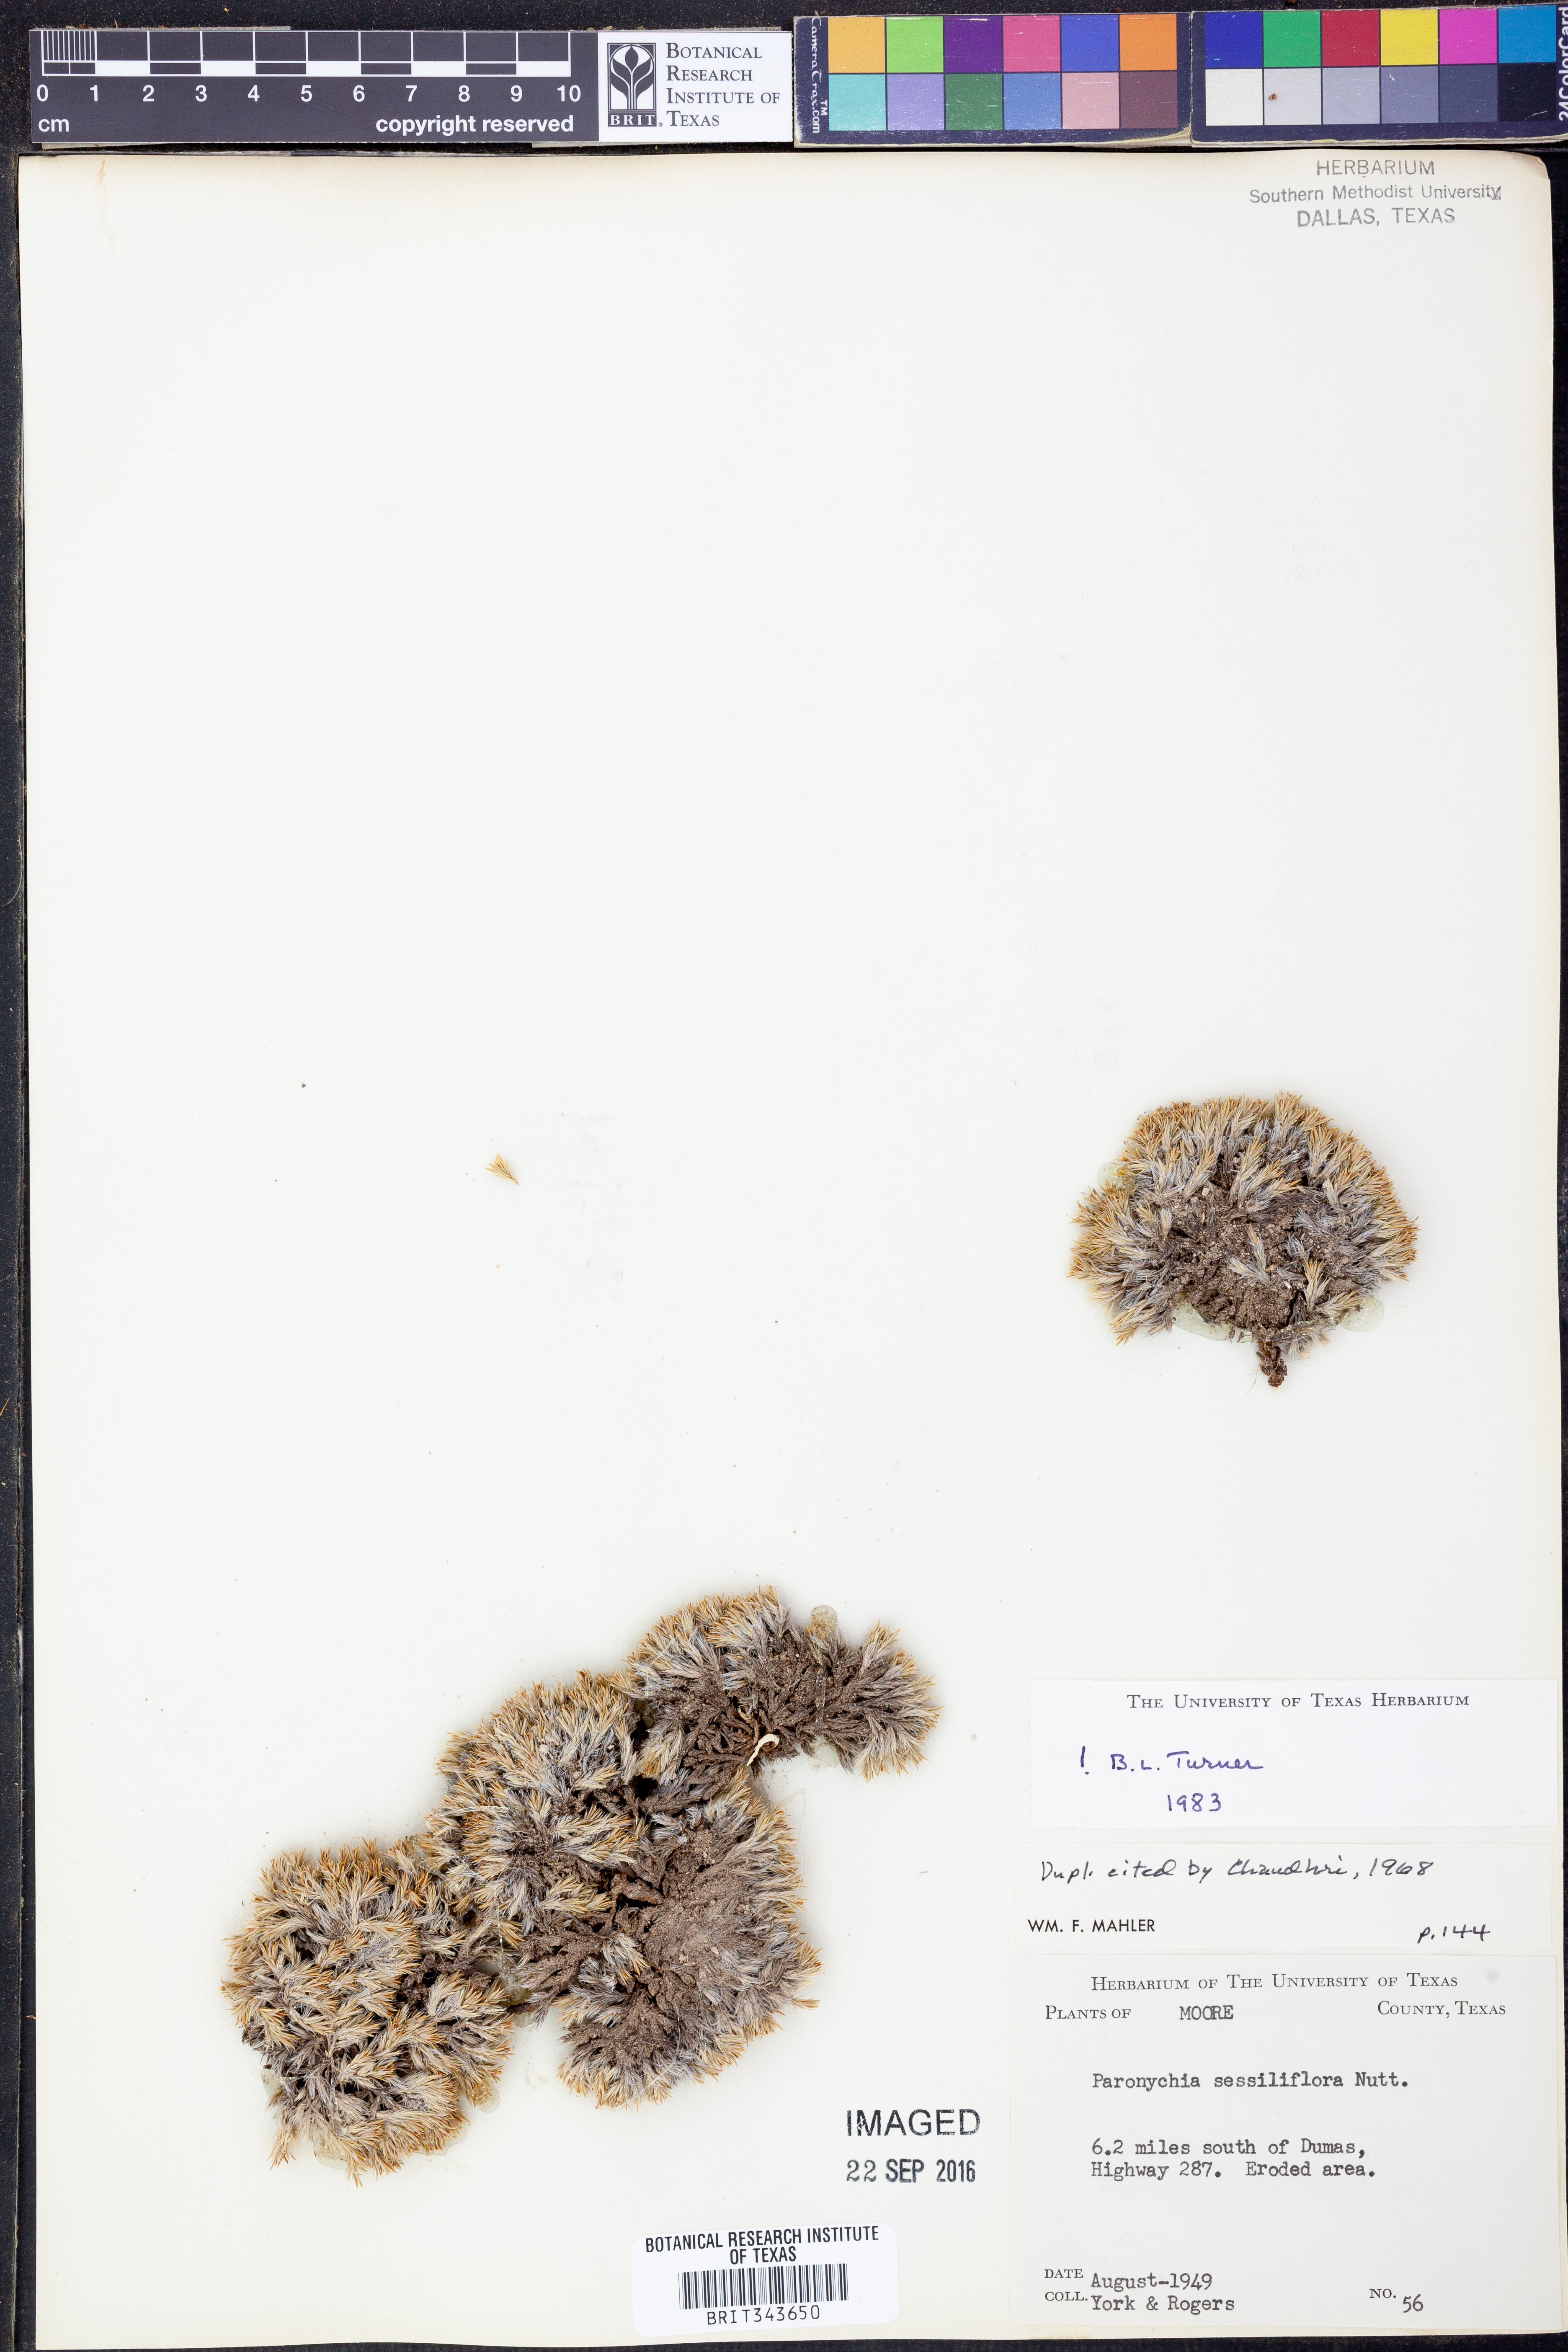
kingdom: Plantae
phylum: Tracheophyta
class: Magnoliopsida
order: Caryophyllales
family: Caryophyllaceae
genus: Paronychia
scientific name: Paronychia sessiliflora
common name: Creeping nailwort
